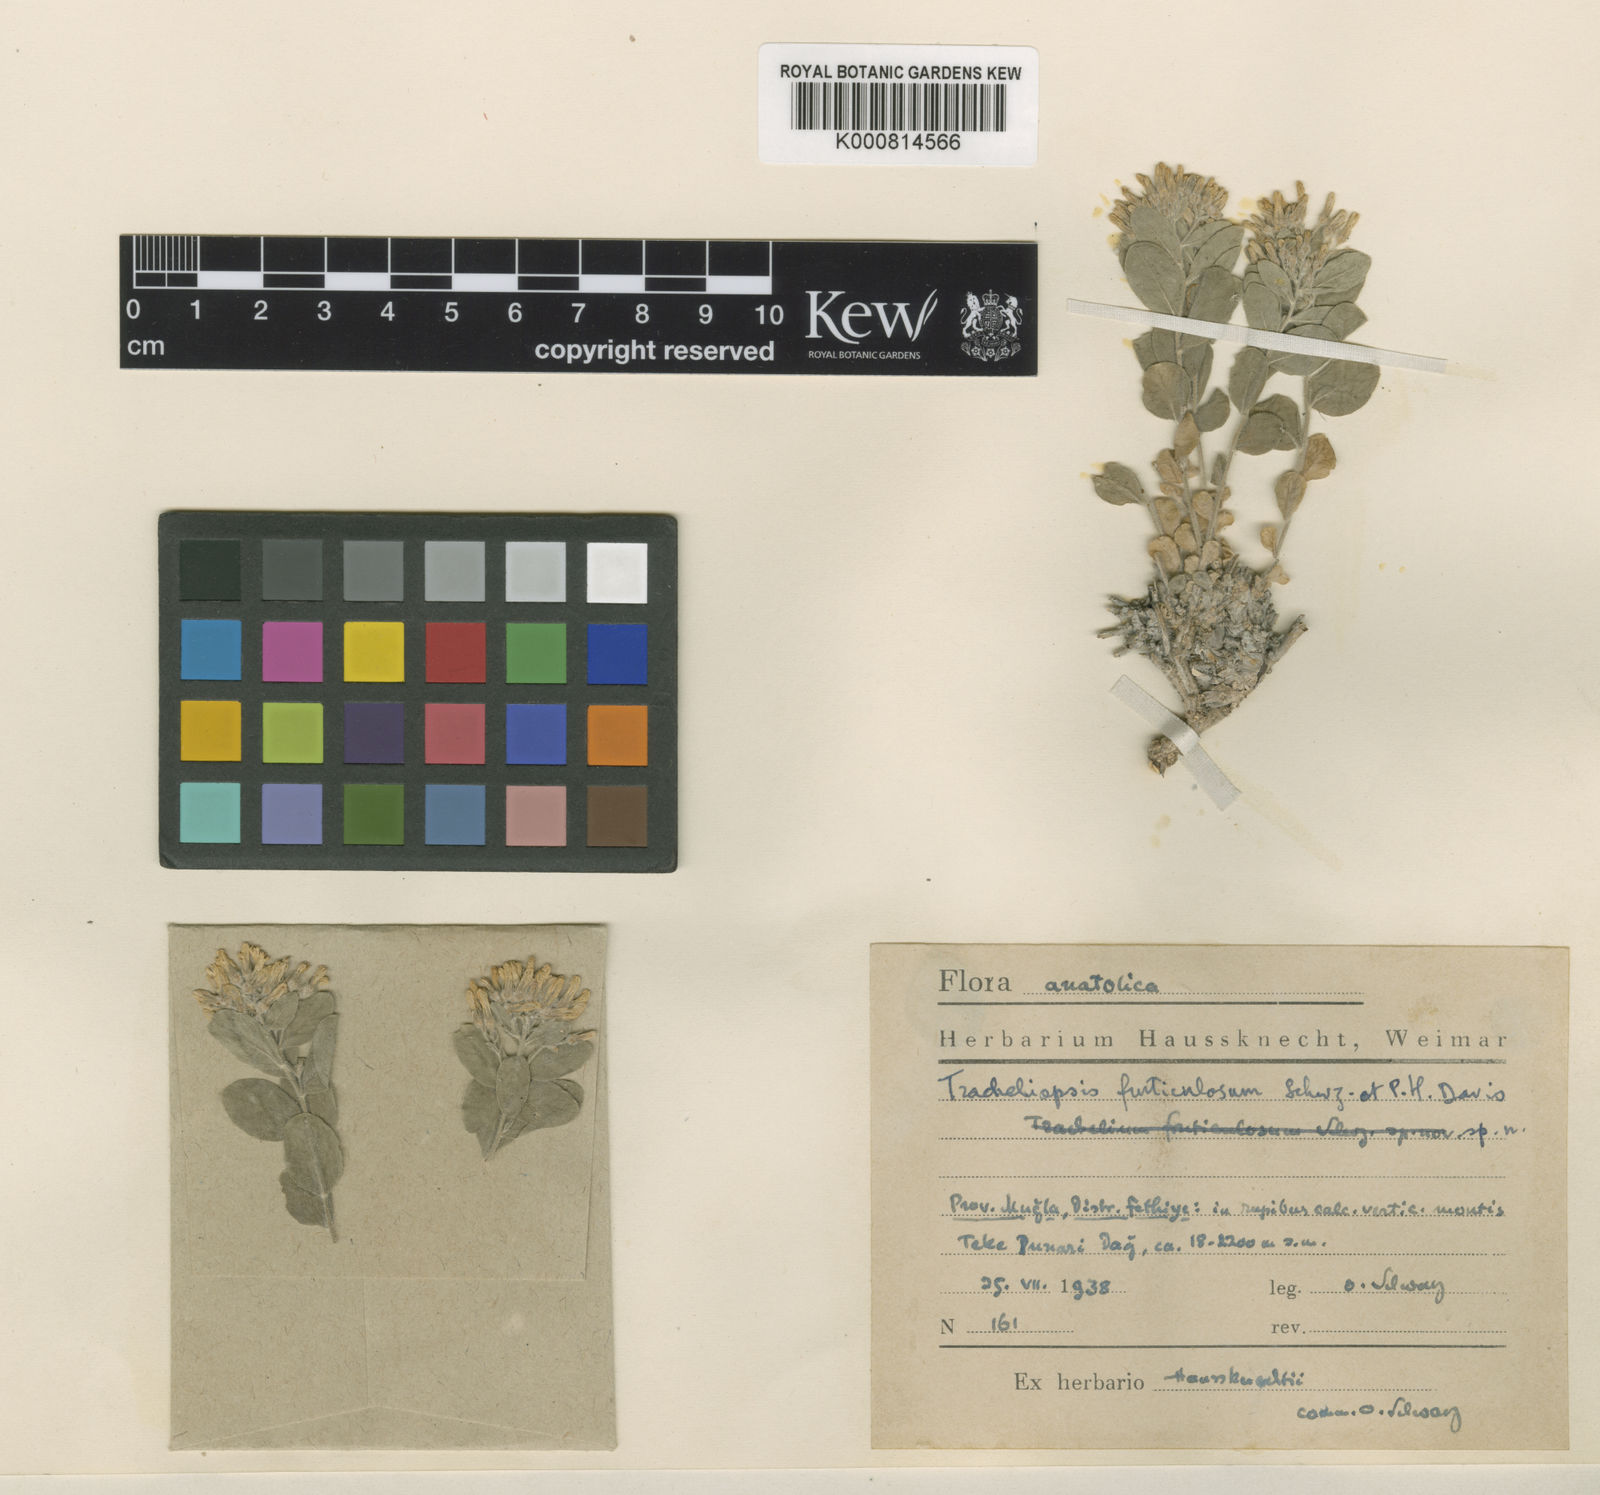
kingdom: Plantae
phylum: Tracheophyta
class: Magnoliopsida
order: Asterales
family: Campanulaceae
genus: Campanula
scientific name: Campanula fruticulosa
